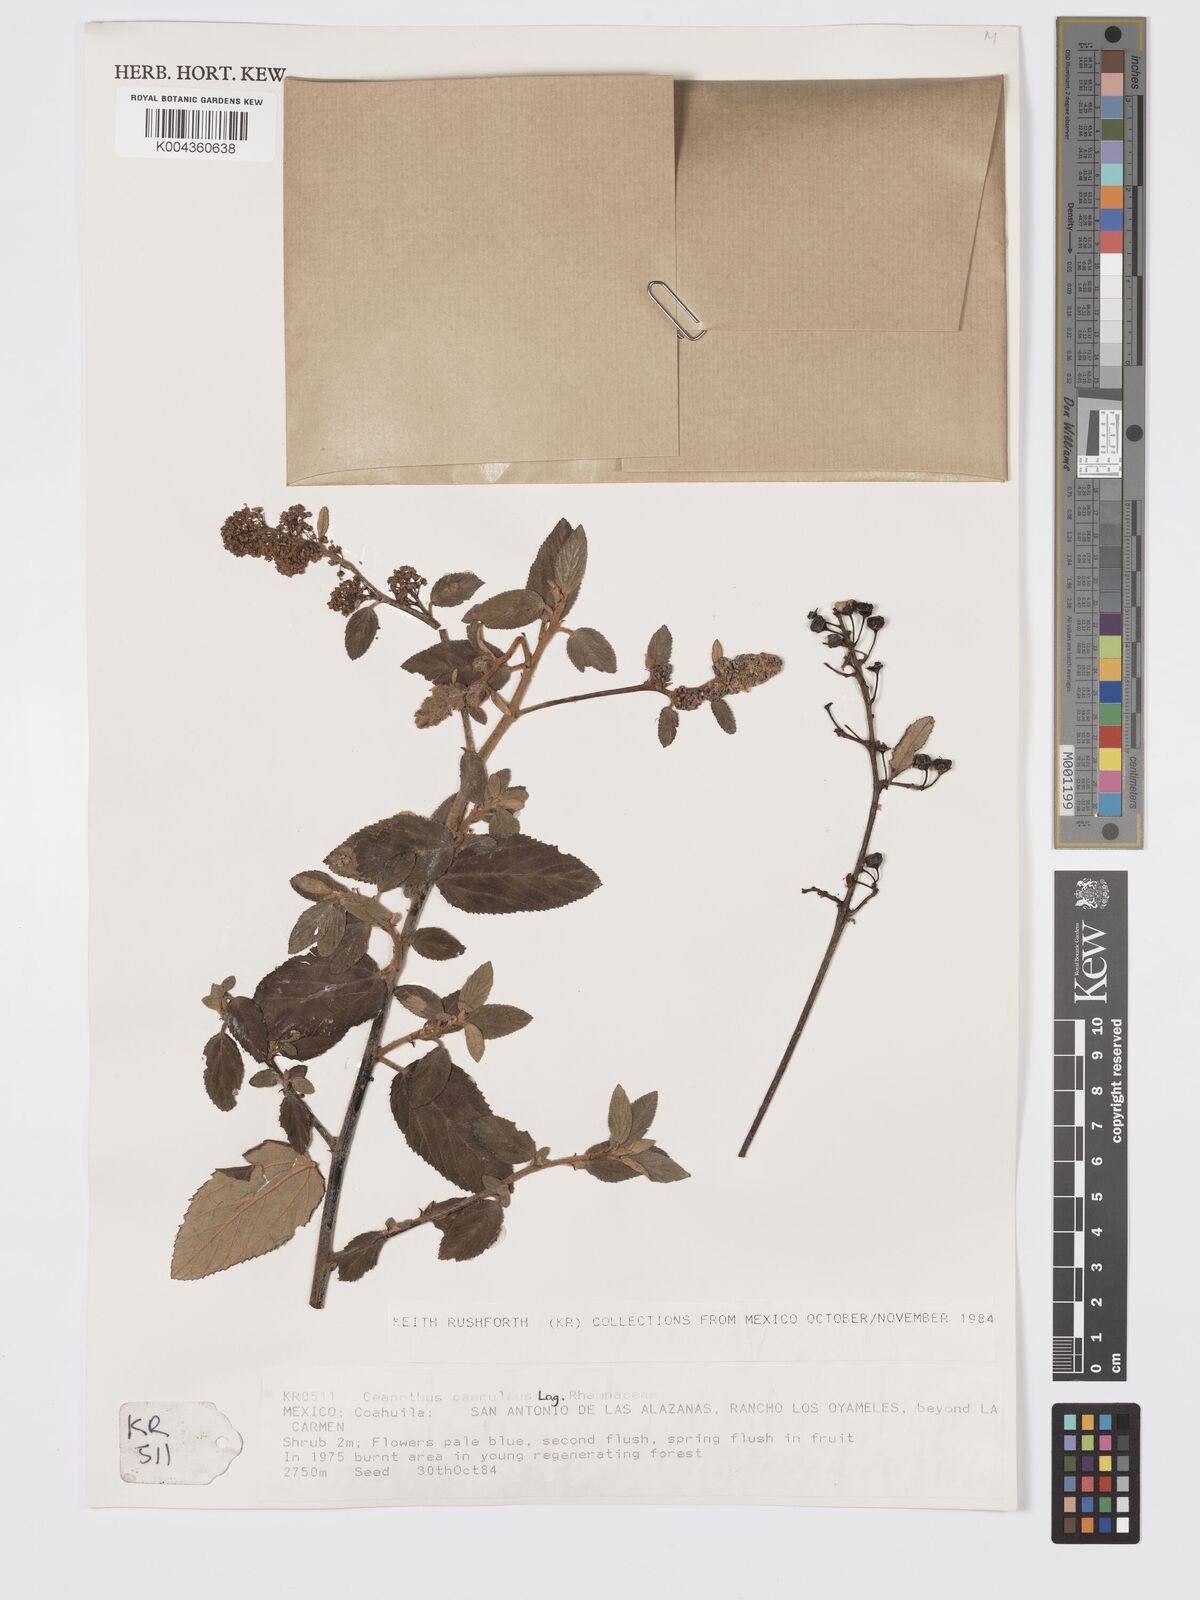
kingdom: Plantae
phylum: Tracheophyta
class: Magnoliopsida
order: Rosales
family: Rhamnaceae
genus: Ceanothus
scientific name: Ceanothus caeruleus
